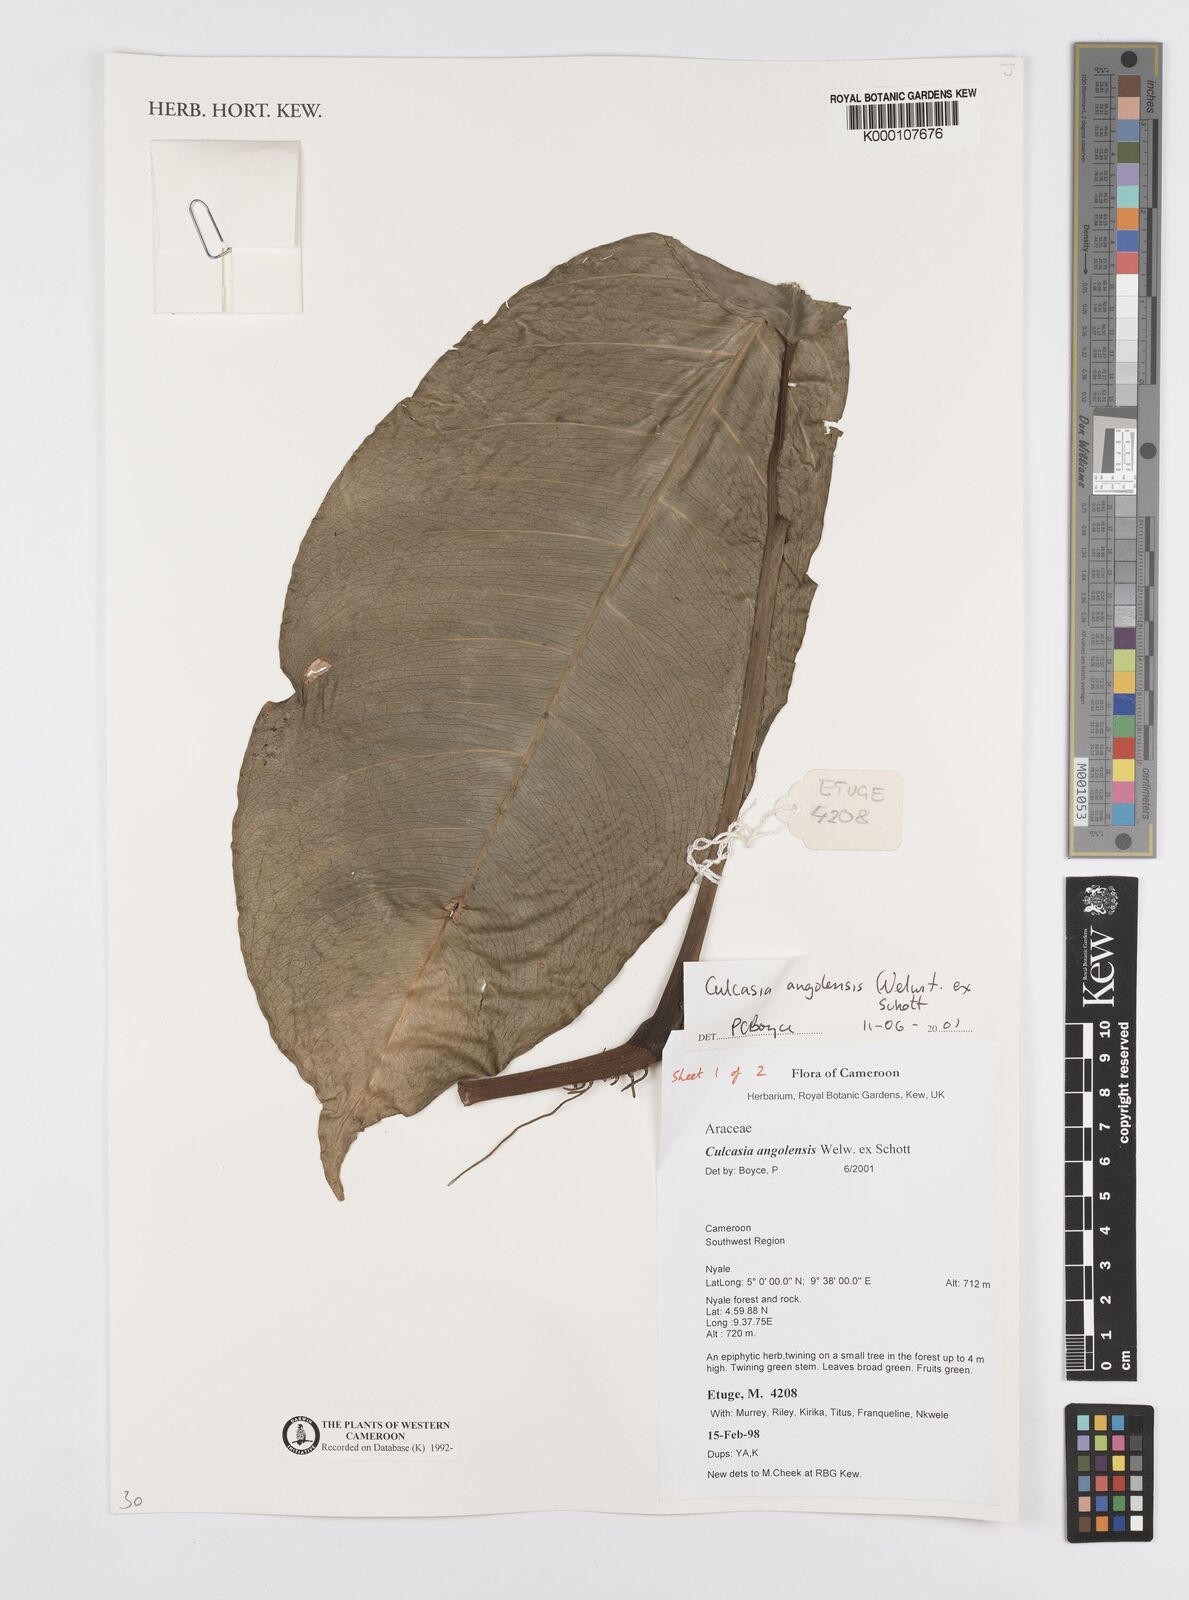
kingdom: Plantae
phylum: Tracheophyta
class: Liliopsida
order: Alismatales
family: Araceae
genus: Culcasia
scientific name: Culcasia angolensis
